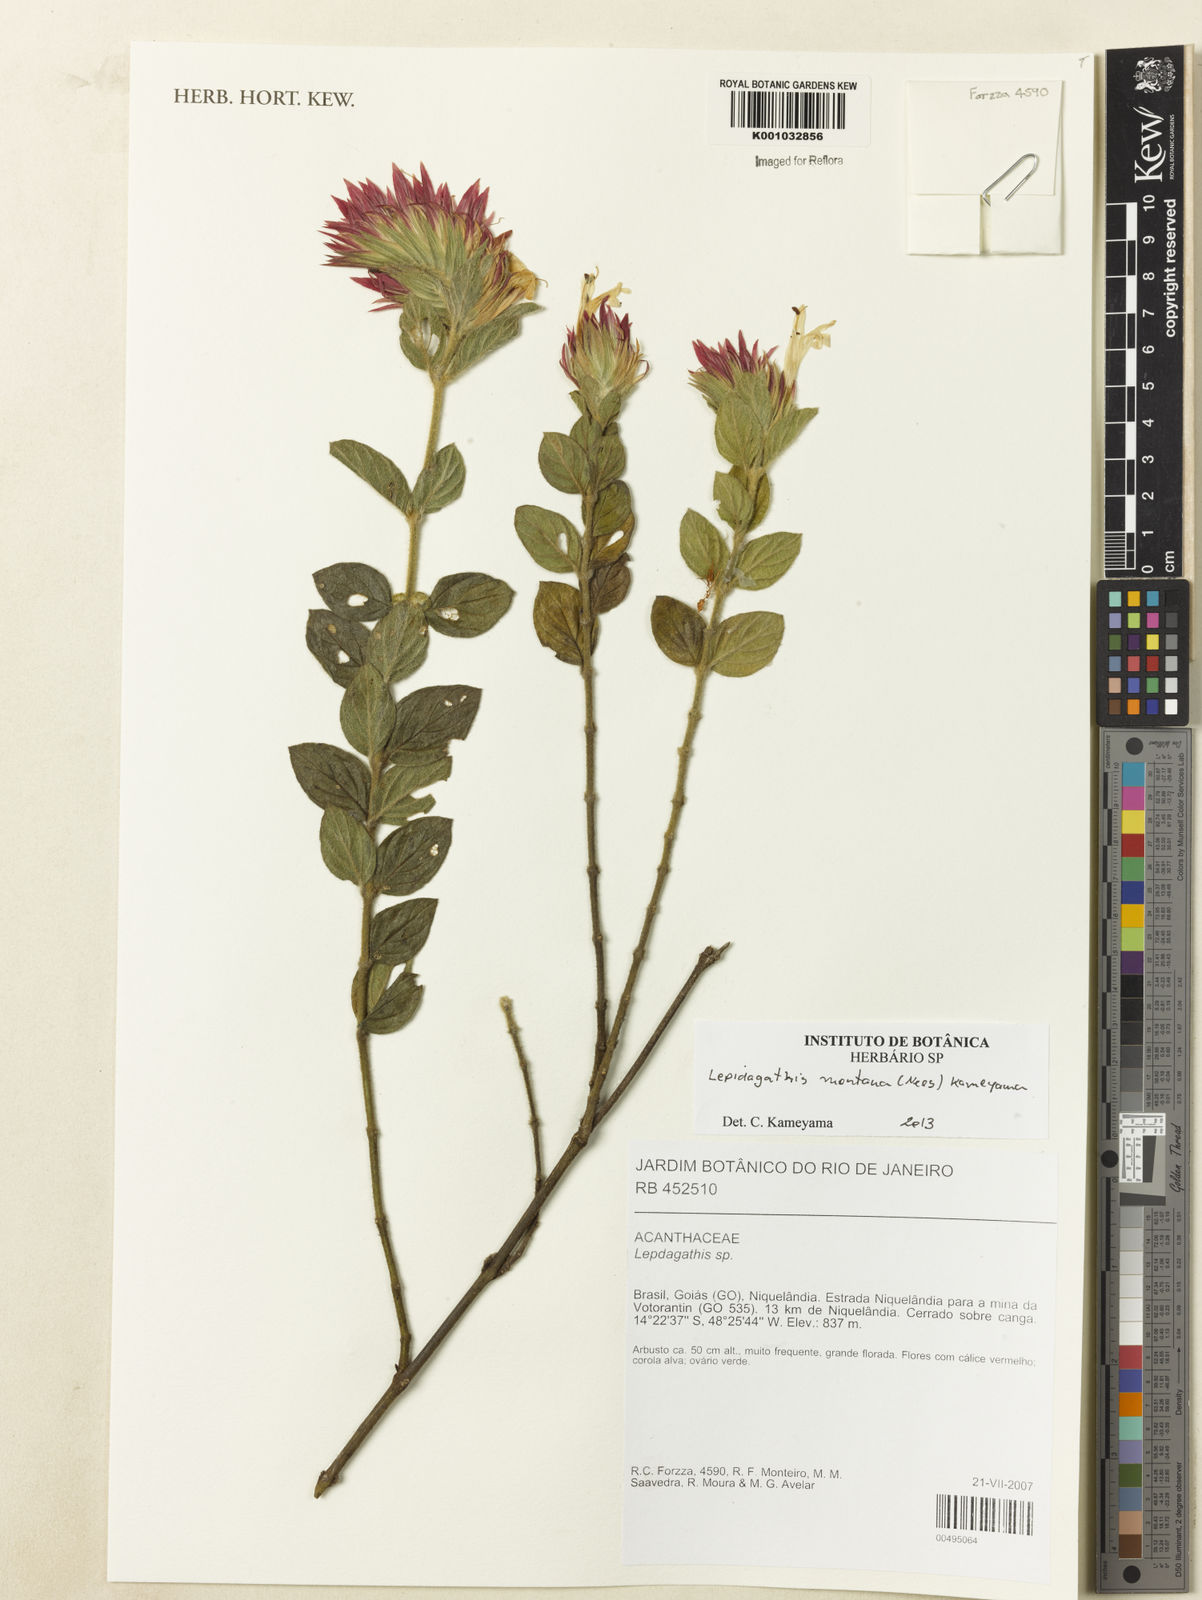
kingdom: Plantae
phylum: Tracheophyta
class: Magnoliopsida
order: Lamiales
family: Acanthaceae
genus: Lepidagathis
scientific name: Lepidagathis montana
